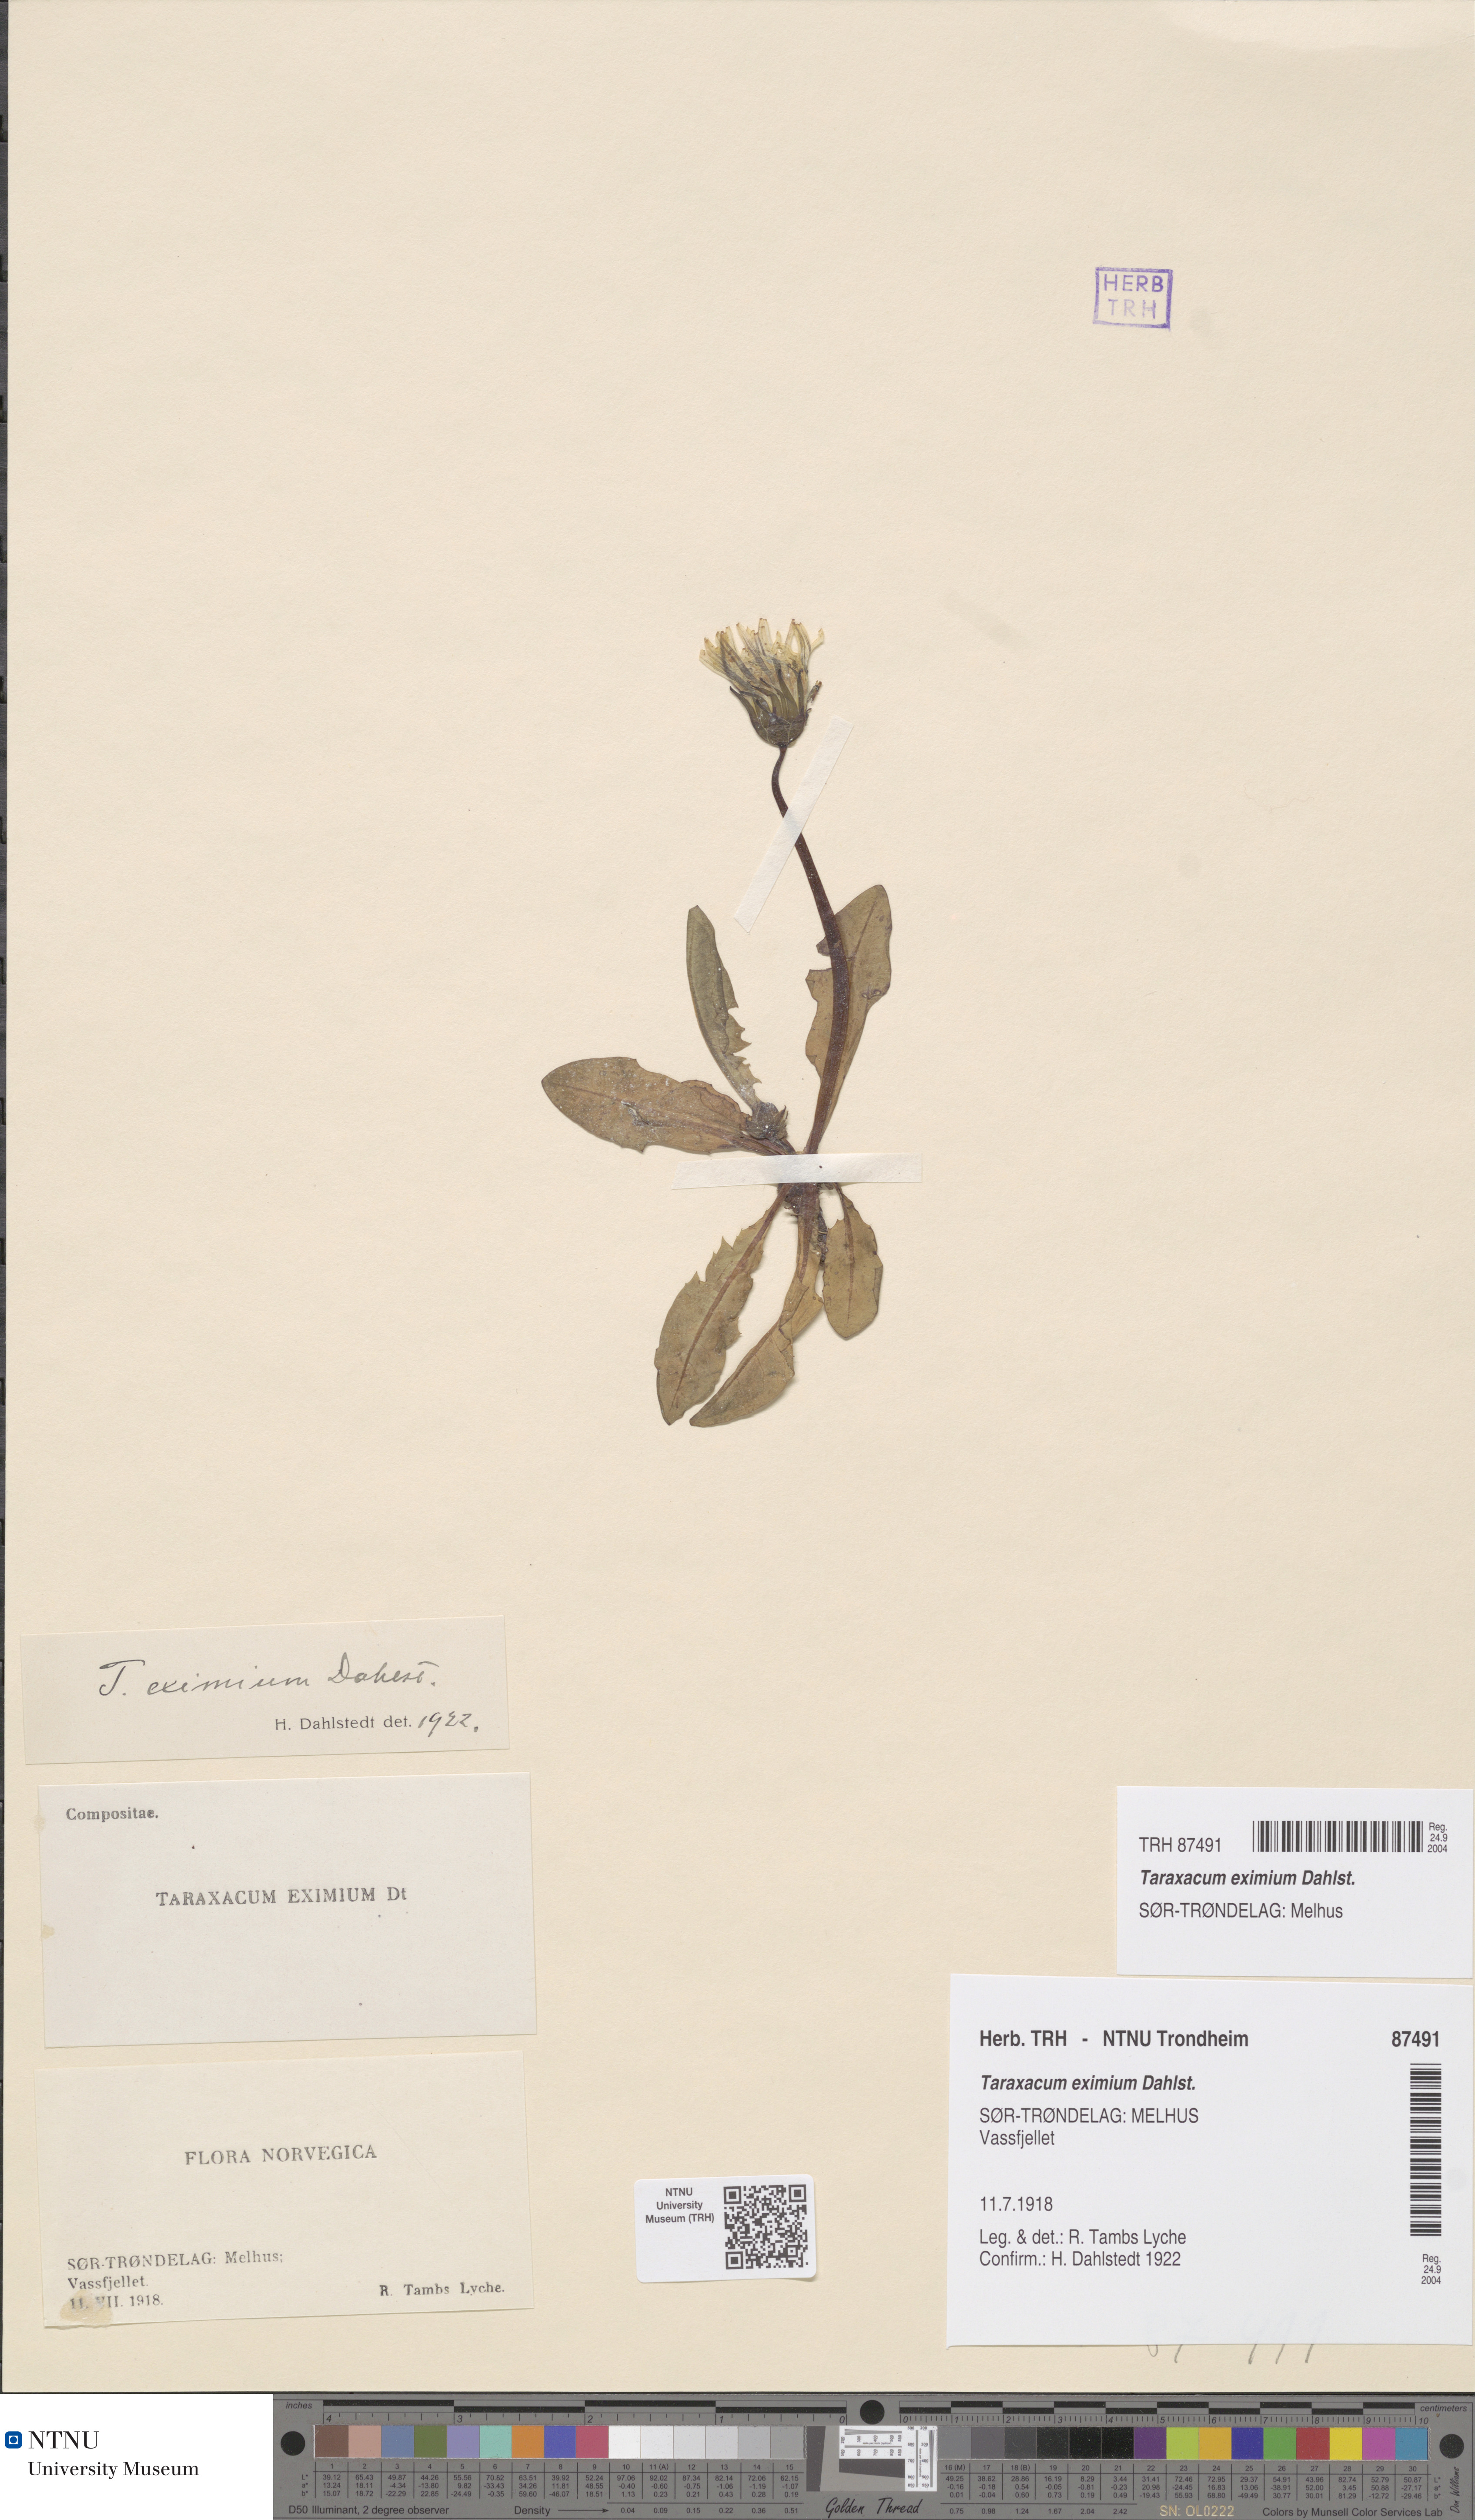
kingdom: Plantae
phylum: Tracheophyta
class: Magnoliopsida
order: Asterales
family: Asteraceae
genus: Taraxacum
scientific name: Taraxacum eximium
